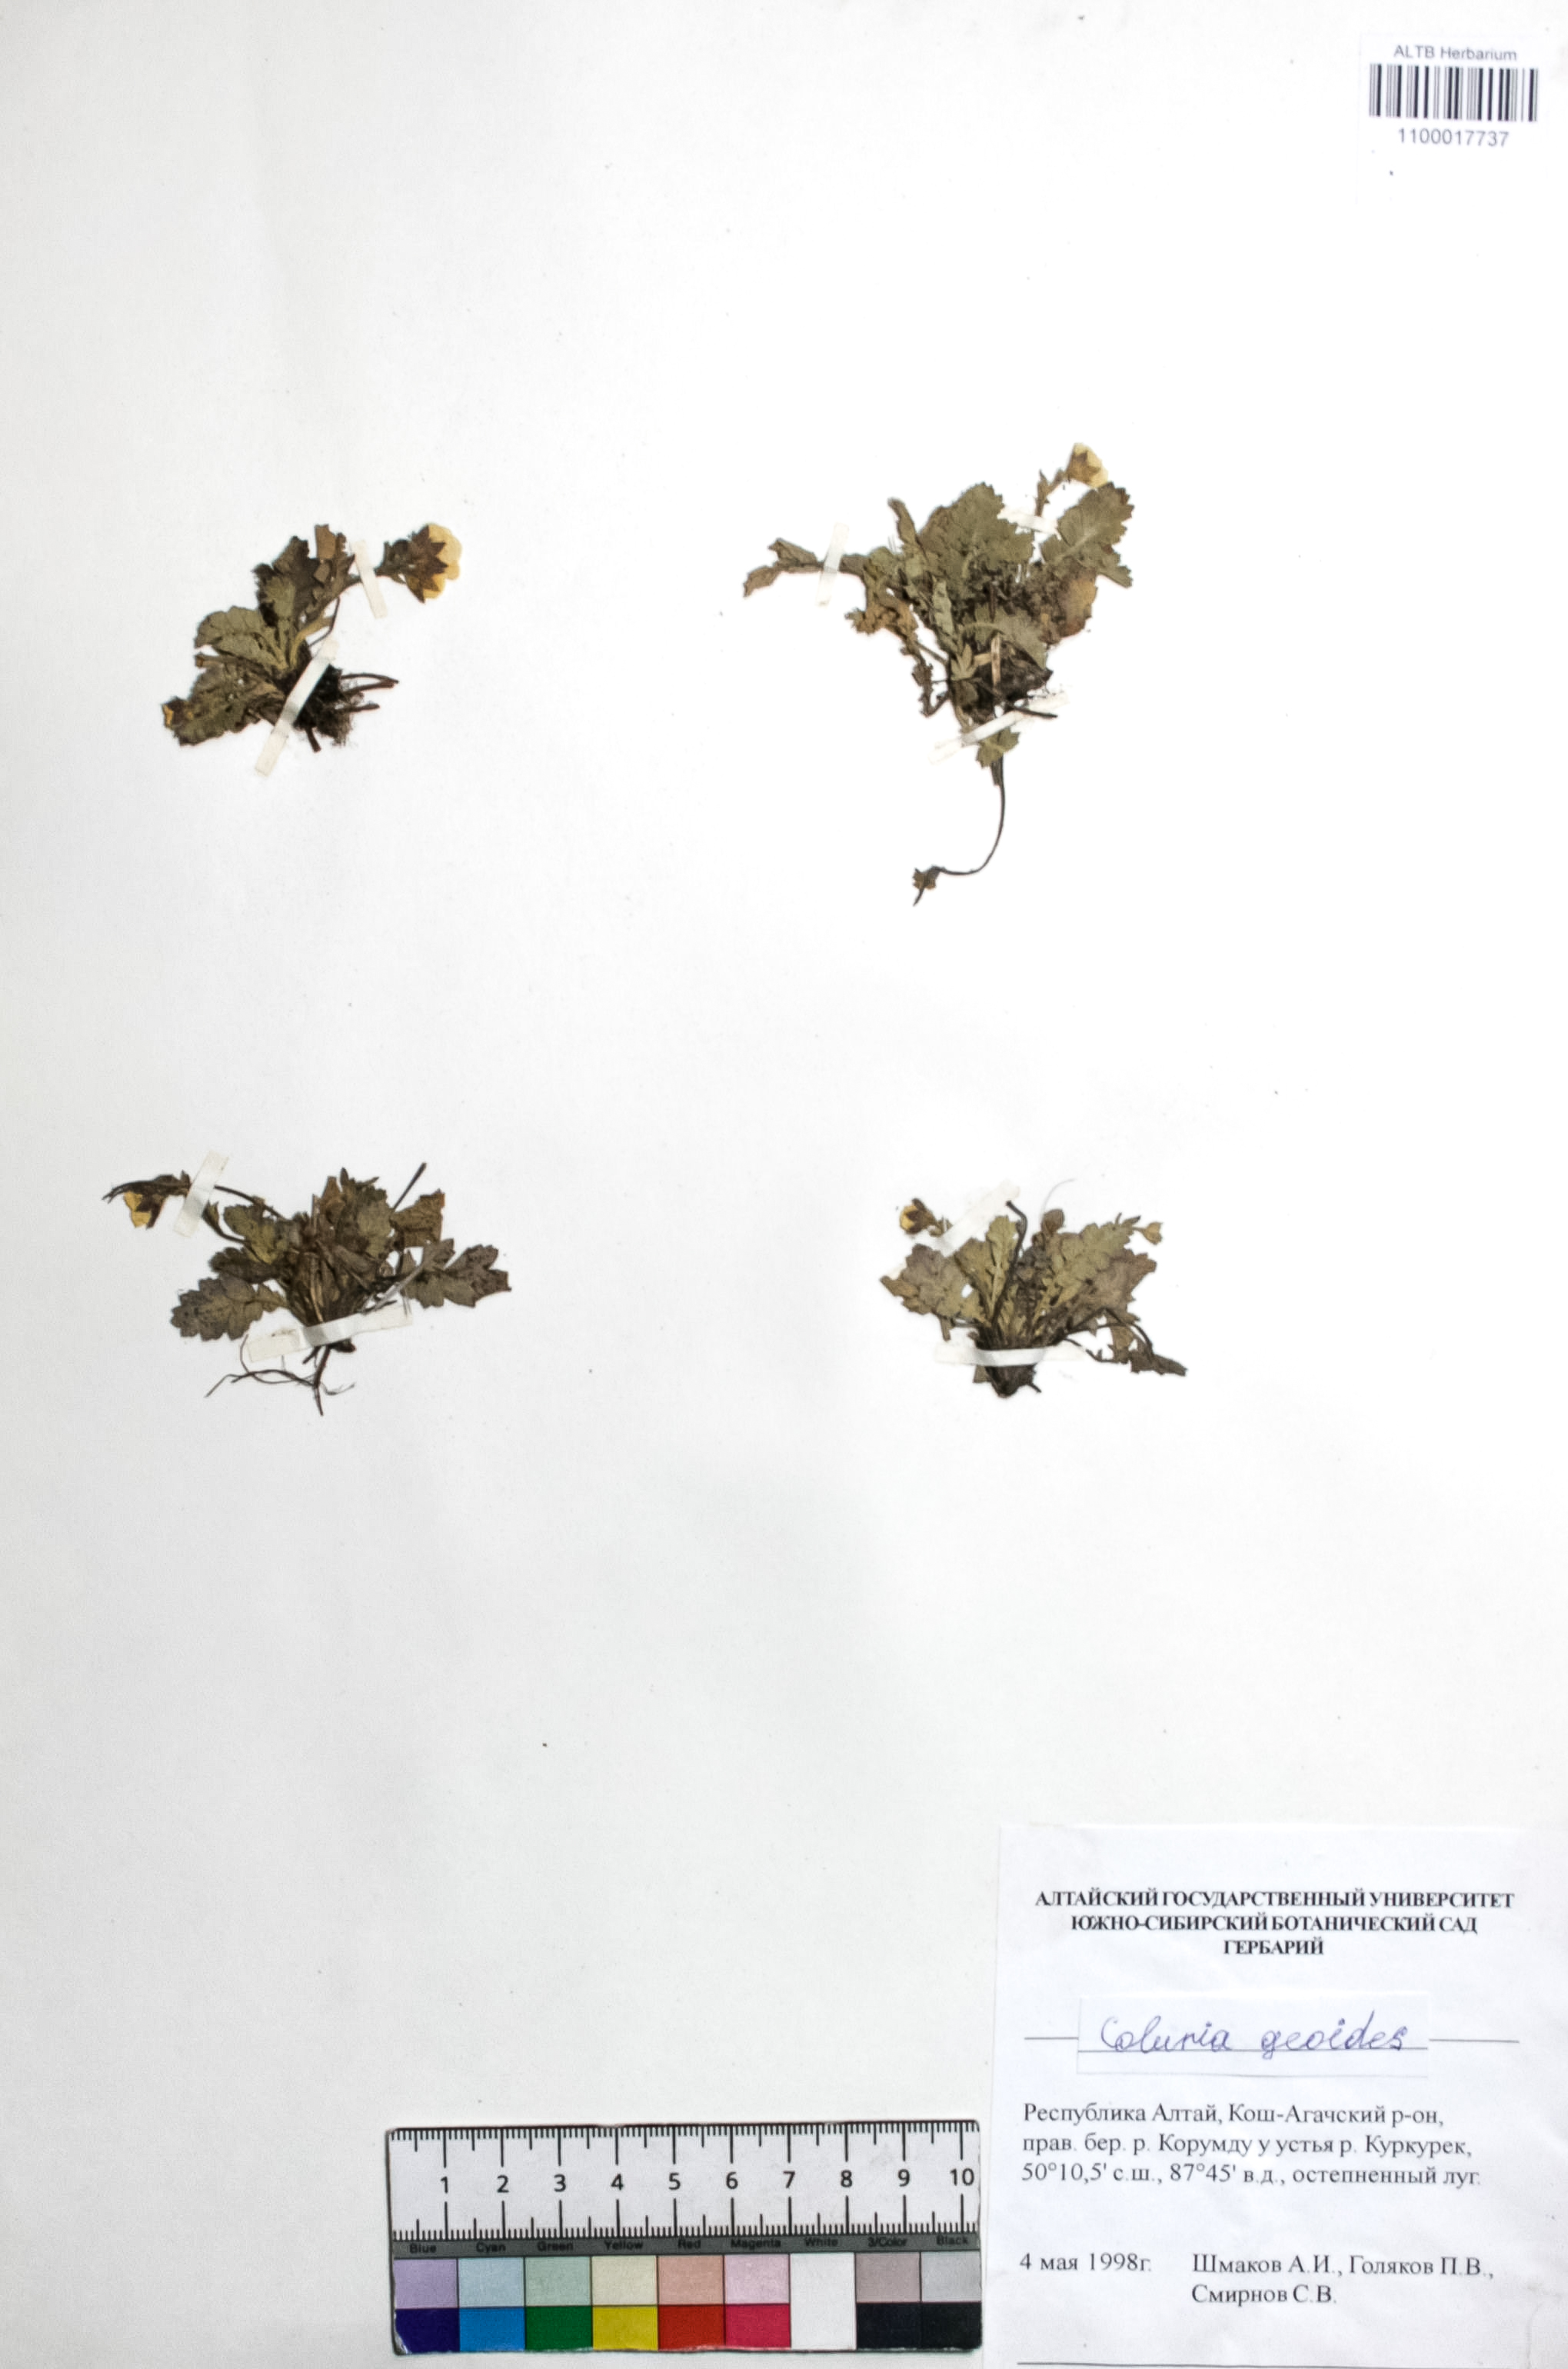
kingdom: Plantae
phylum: Tracheophyta
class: Magnoliopsida
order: Rosales
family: Rosaceae
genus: Geum
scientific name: Geum geoides
